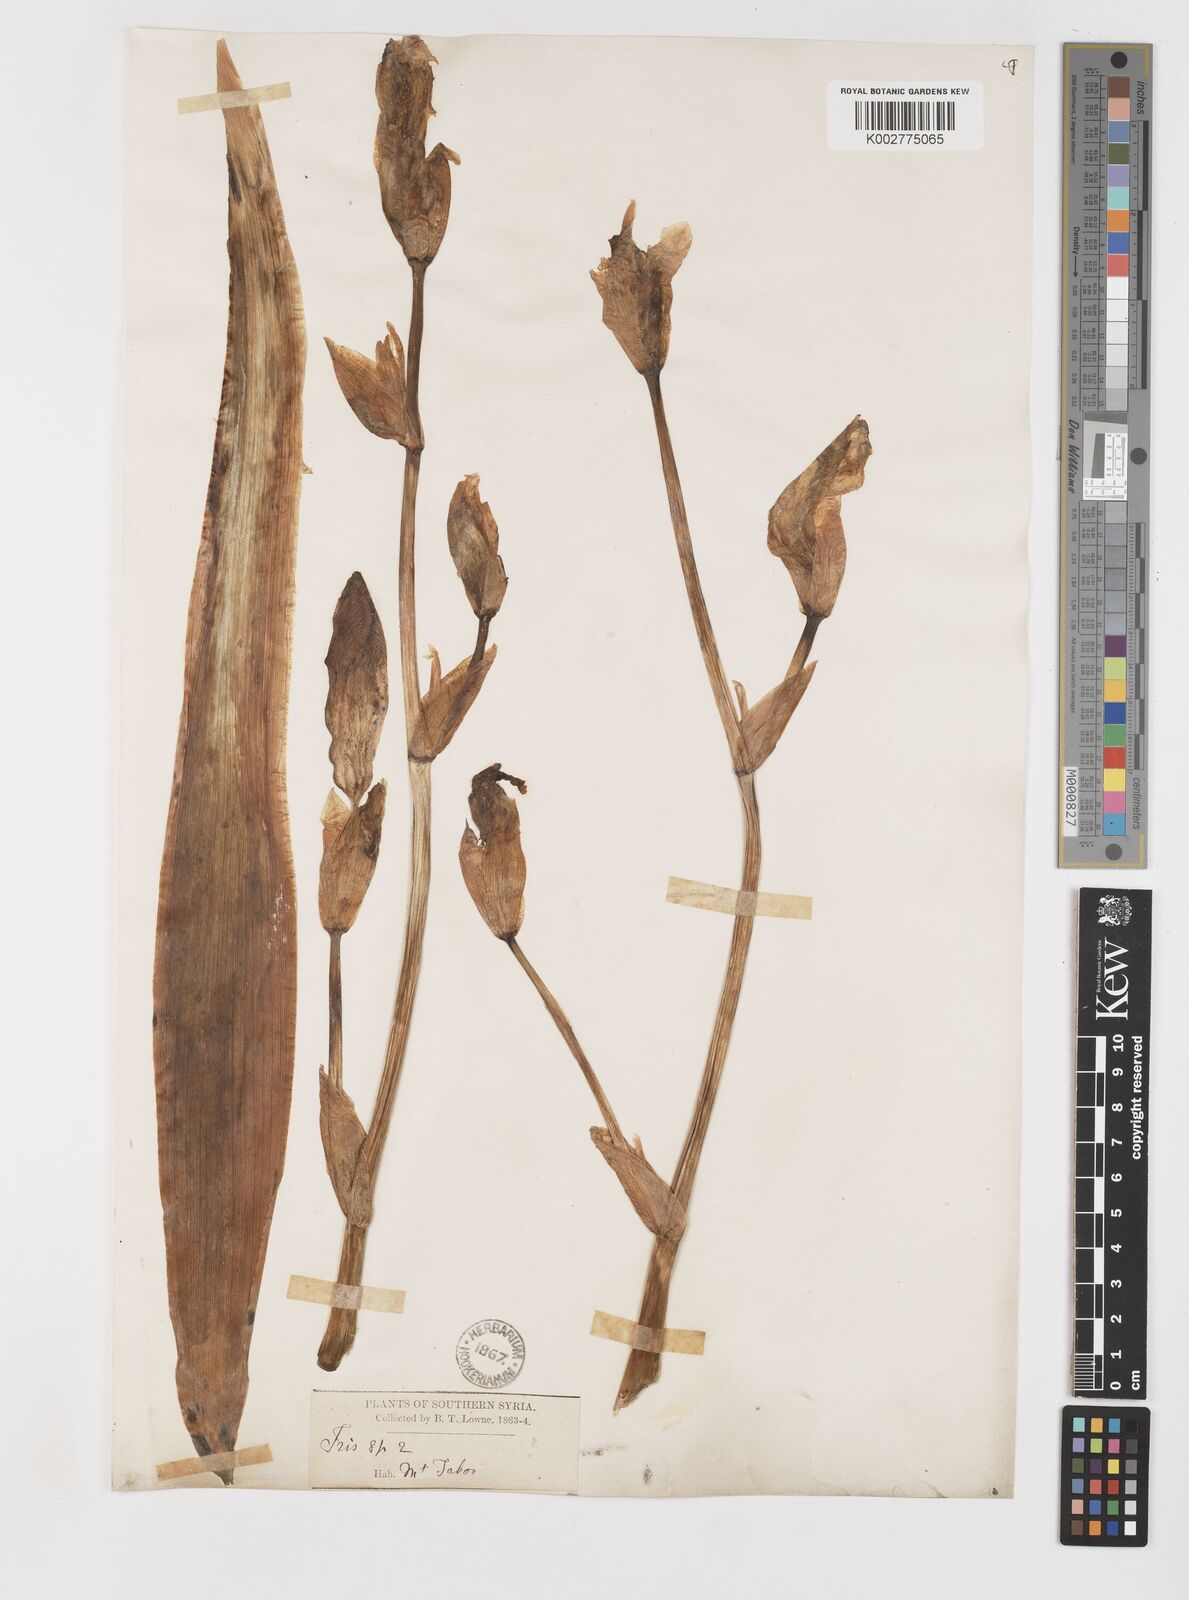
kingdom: Plantae
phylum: Tracheophyta
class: Liliopsida
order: Asparagales
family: Iridaceae
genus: Iris
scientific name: Iris germanica
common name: German iris
